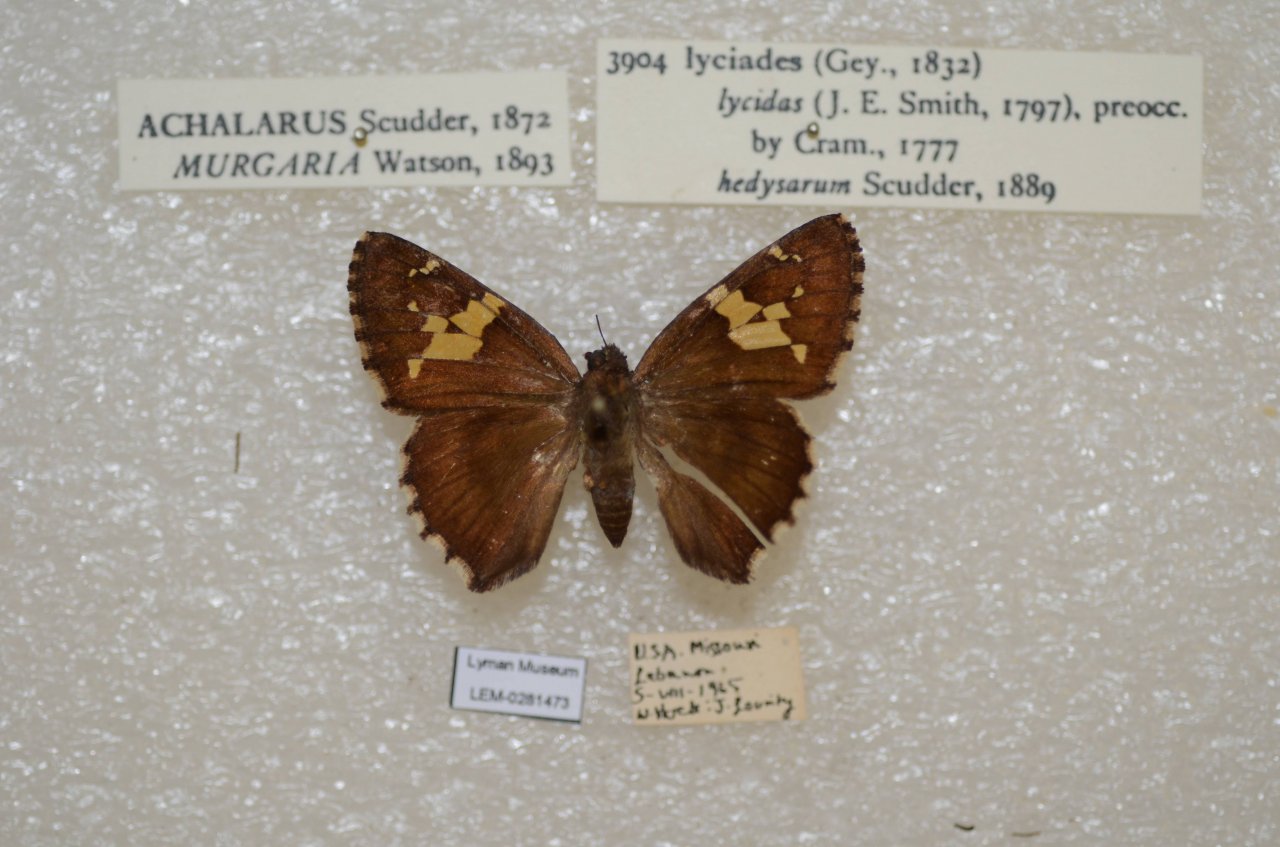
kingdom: Animalia
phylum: Arthropoda
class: Insecta
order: Lepidoptera
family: Hesperiidae
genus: Achalarus
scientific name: Achalarus lyciades
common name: Hoary Edge
